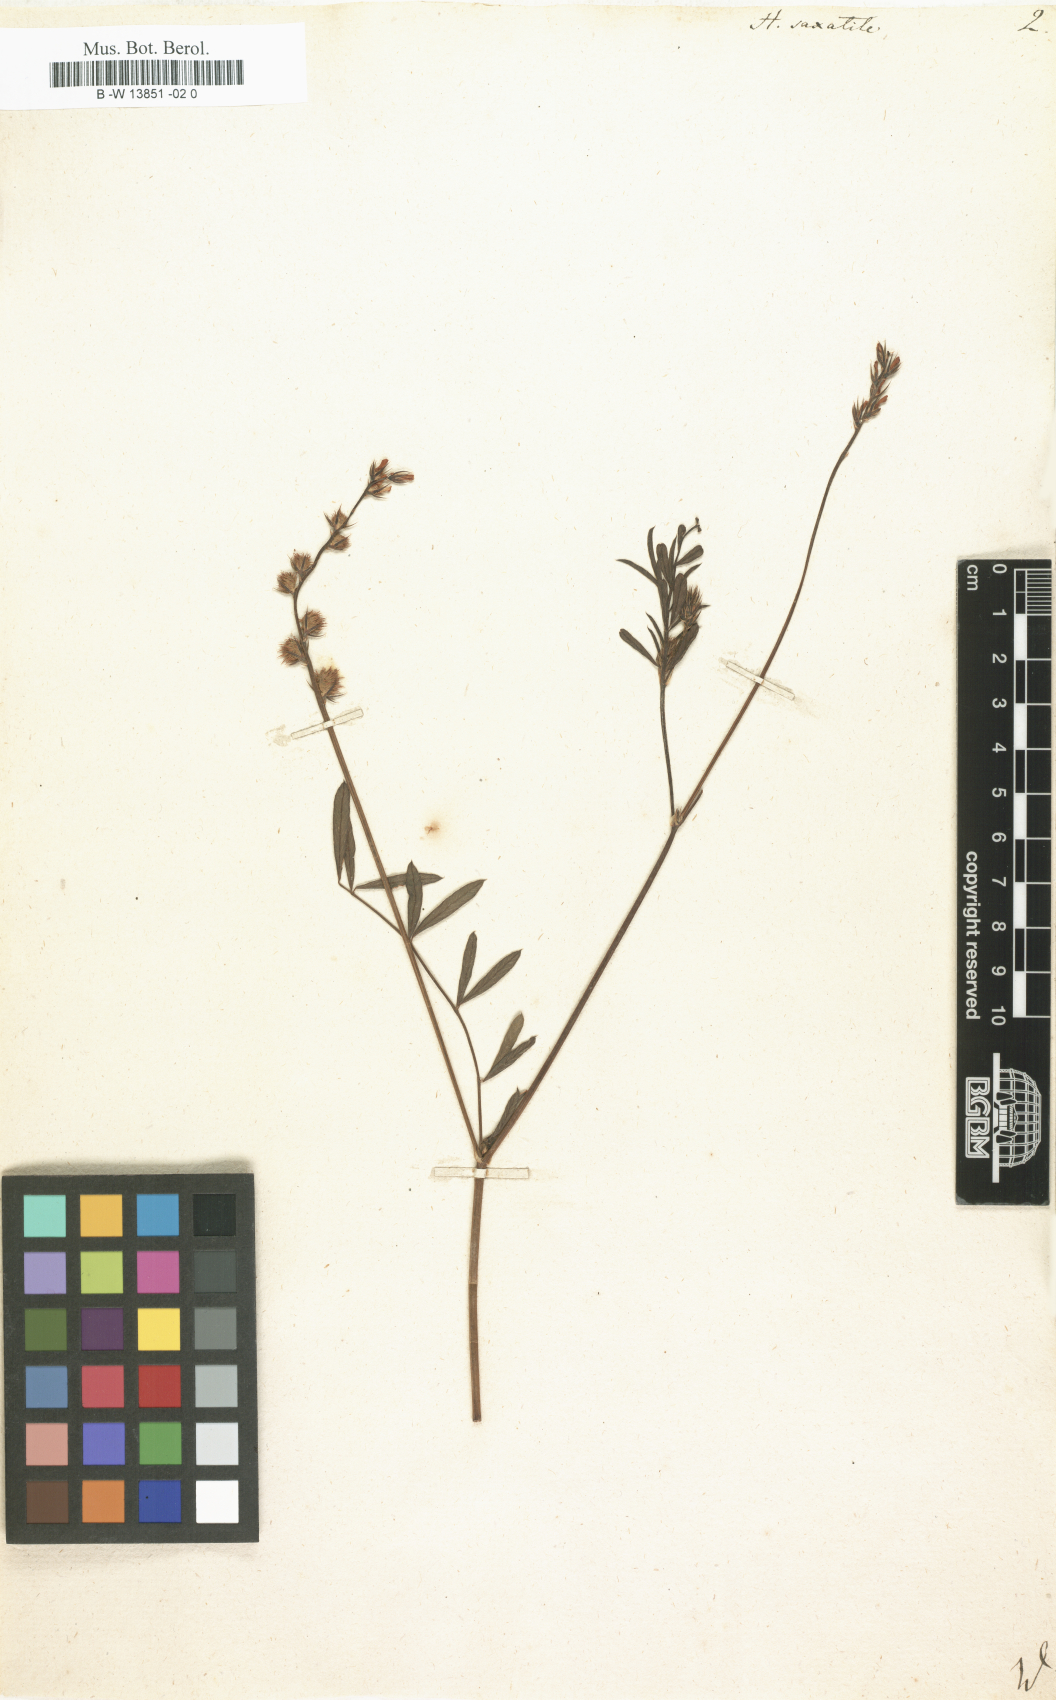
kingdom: Plantae
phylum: Tracheophyta
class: Magnoliopsida
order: Fabales
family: Fabaceae
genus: Hedysarum
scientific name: Hedysarum saxatile
